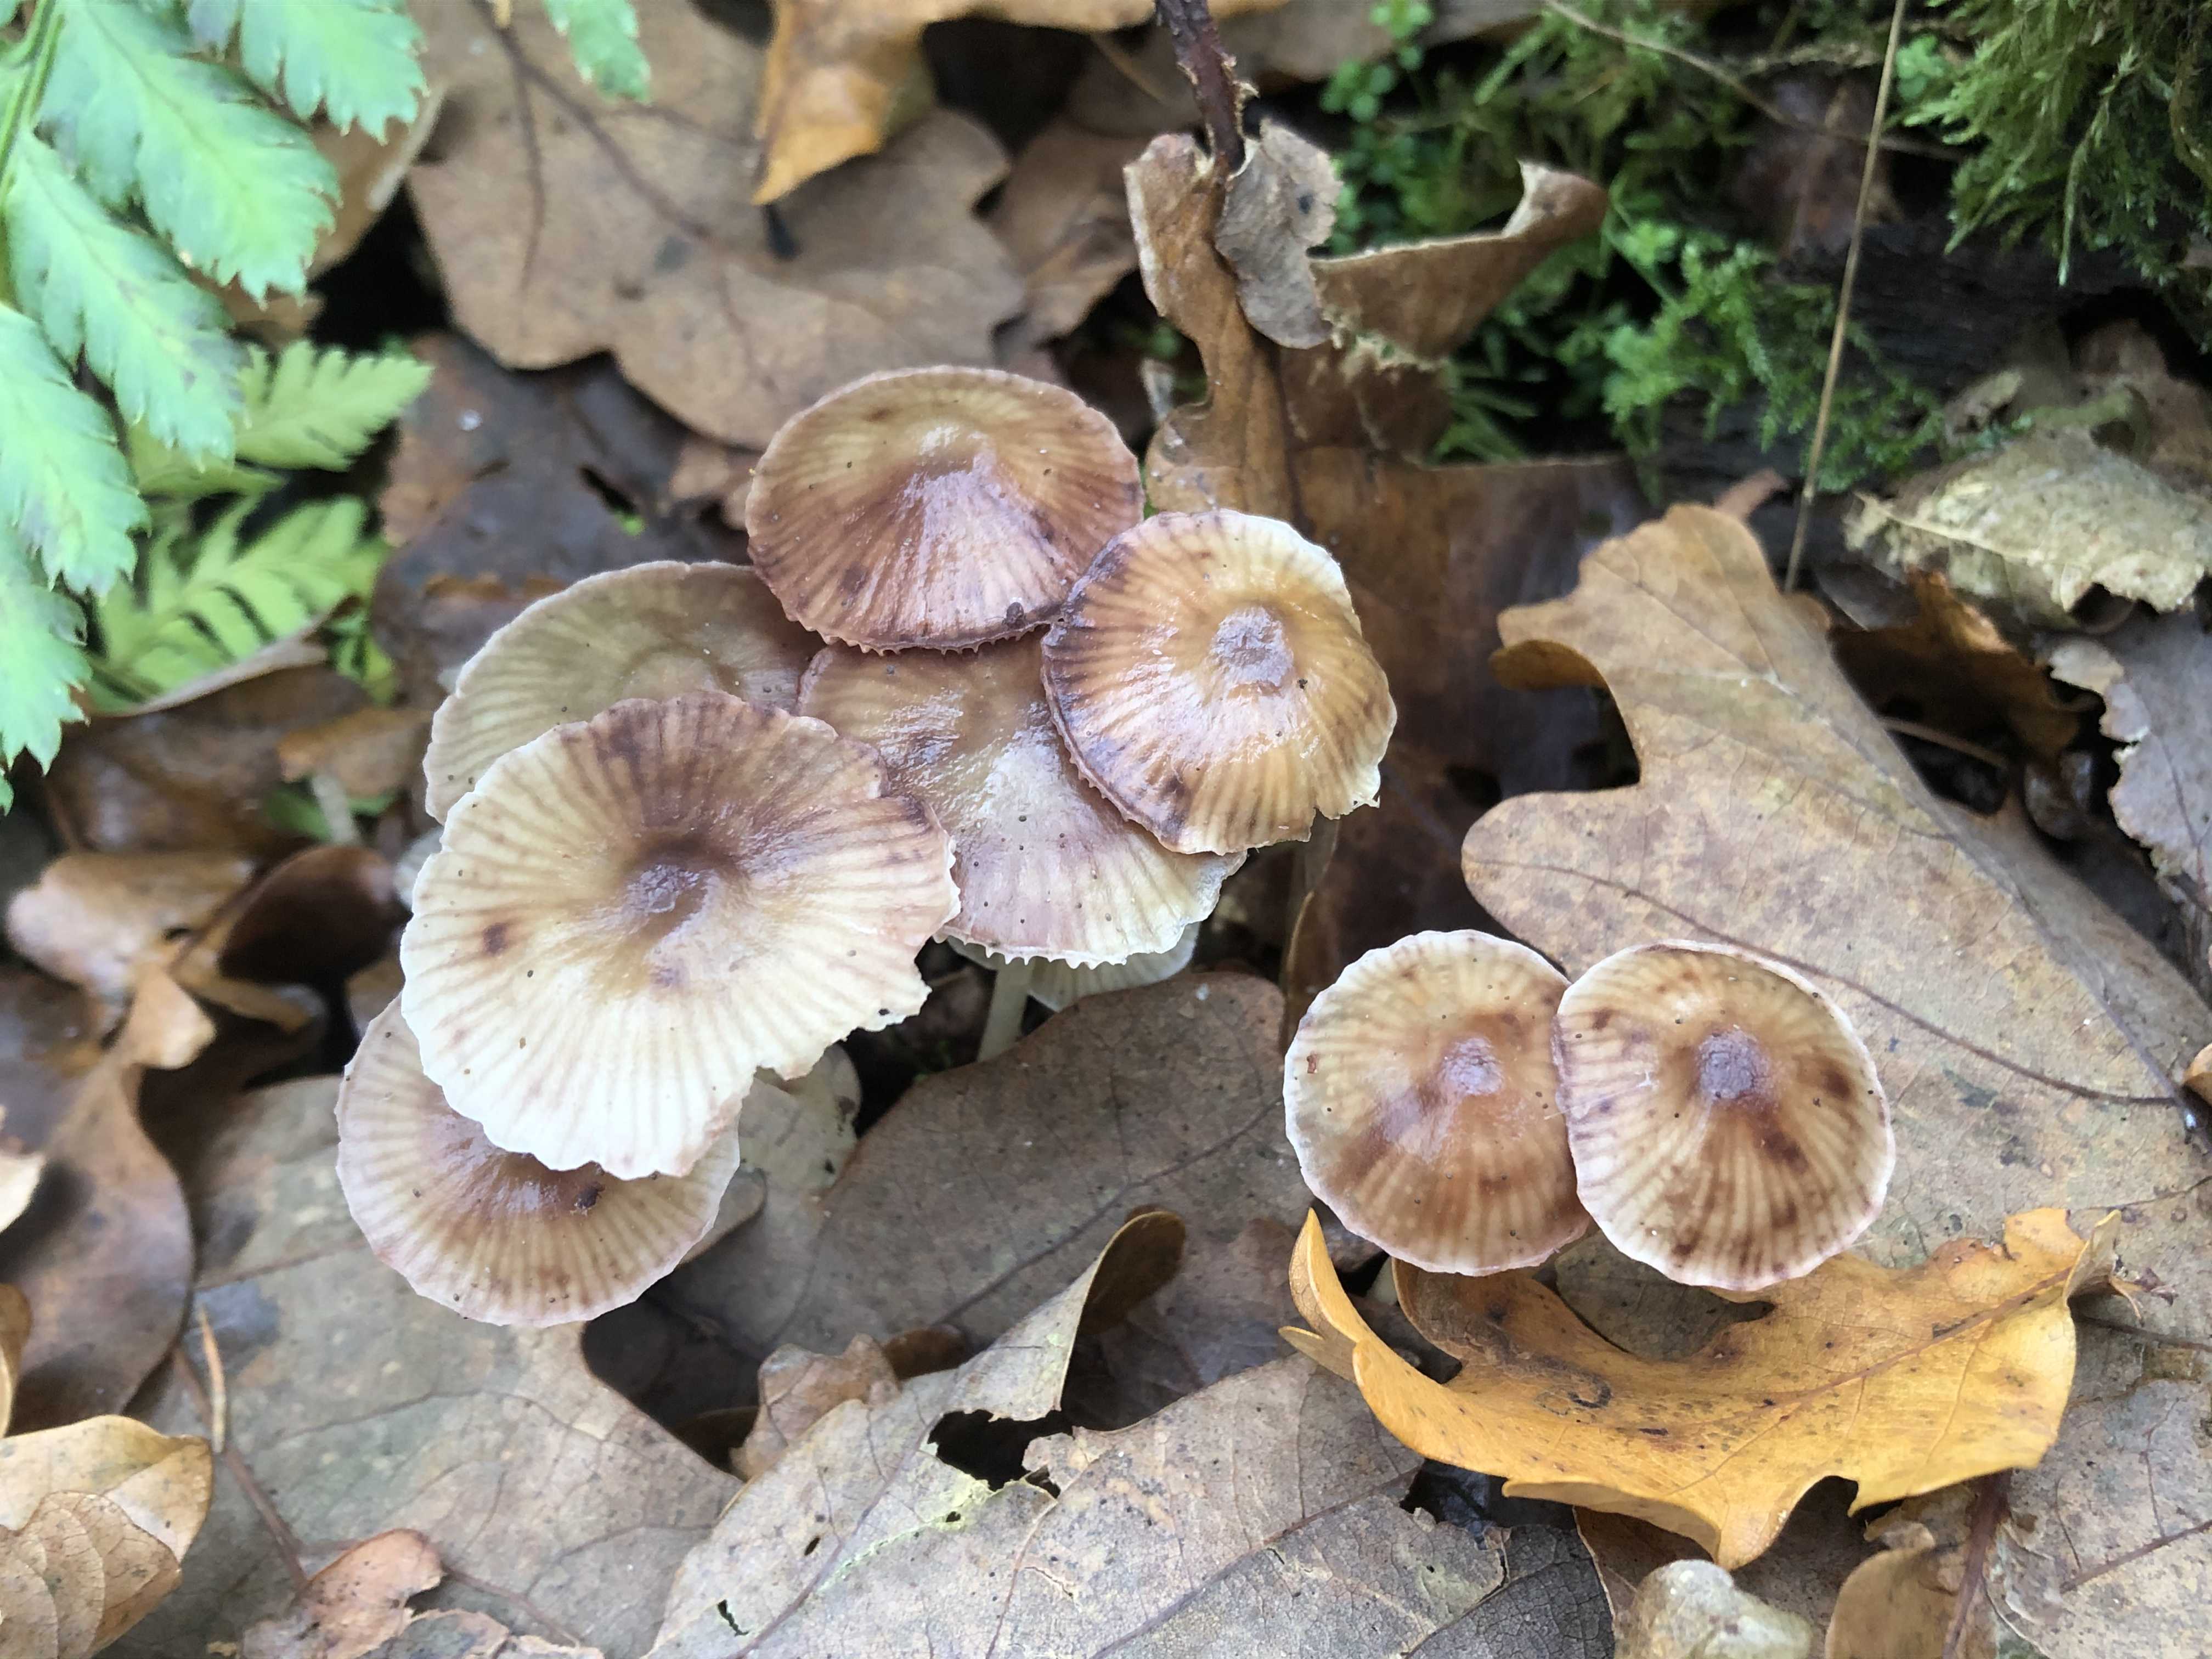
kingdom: Fungi
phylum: Basidiomycota
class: Agaricomycetes
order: Agaricales
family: Mycenaceae
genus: Mycena
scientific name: Mycena epipterygia
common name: gulstokket huesvamp
